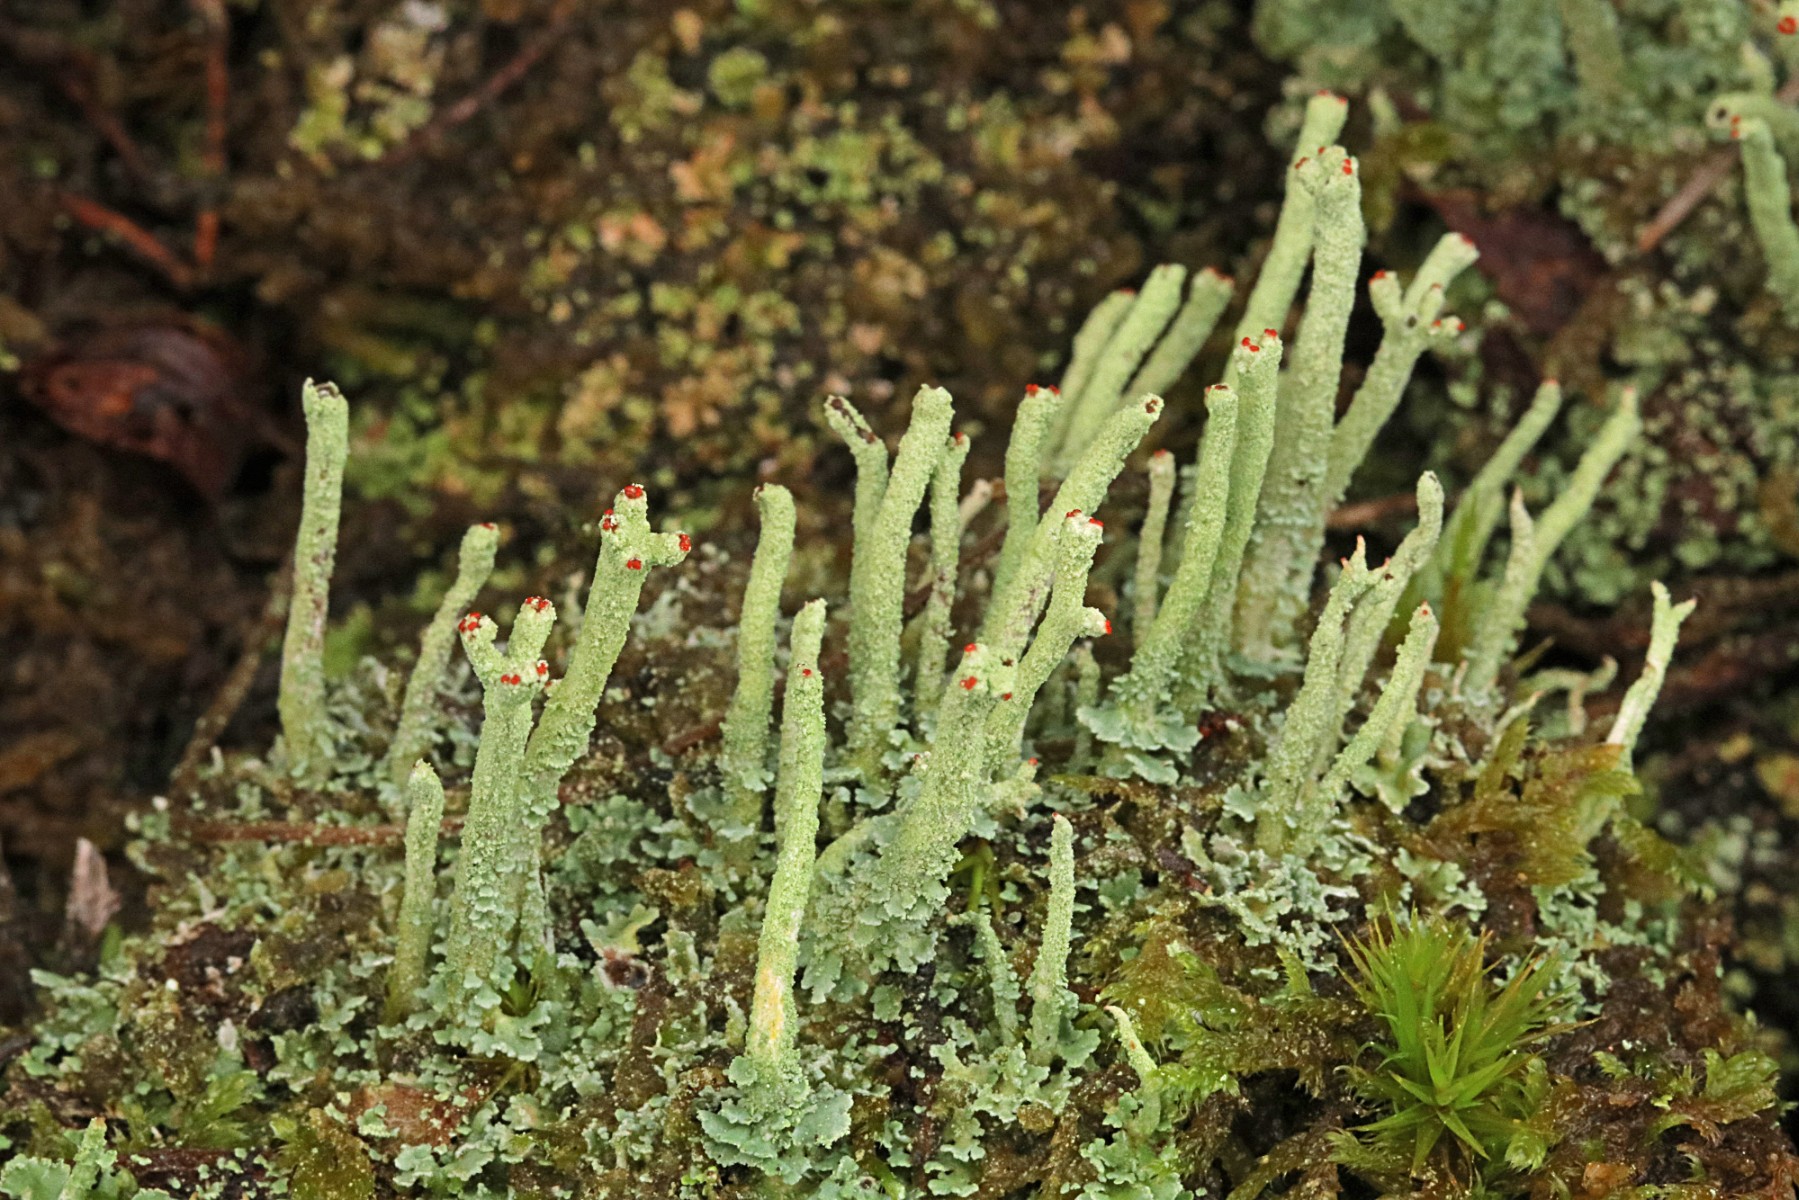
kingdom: Fungi
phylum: Ascomycota
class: Lecanoromycetes
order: Lecanorales
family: Cladoniaceae
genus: Cladonia
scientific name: Cladonia
